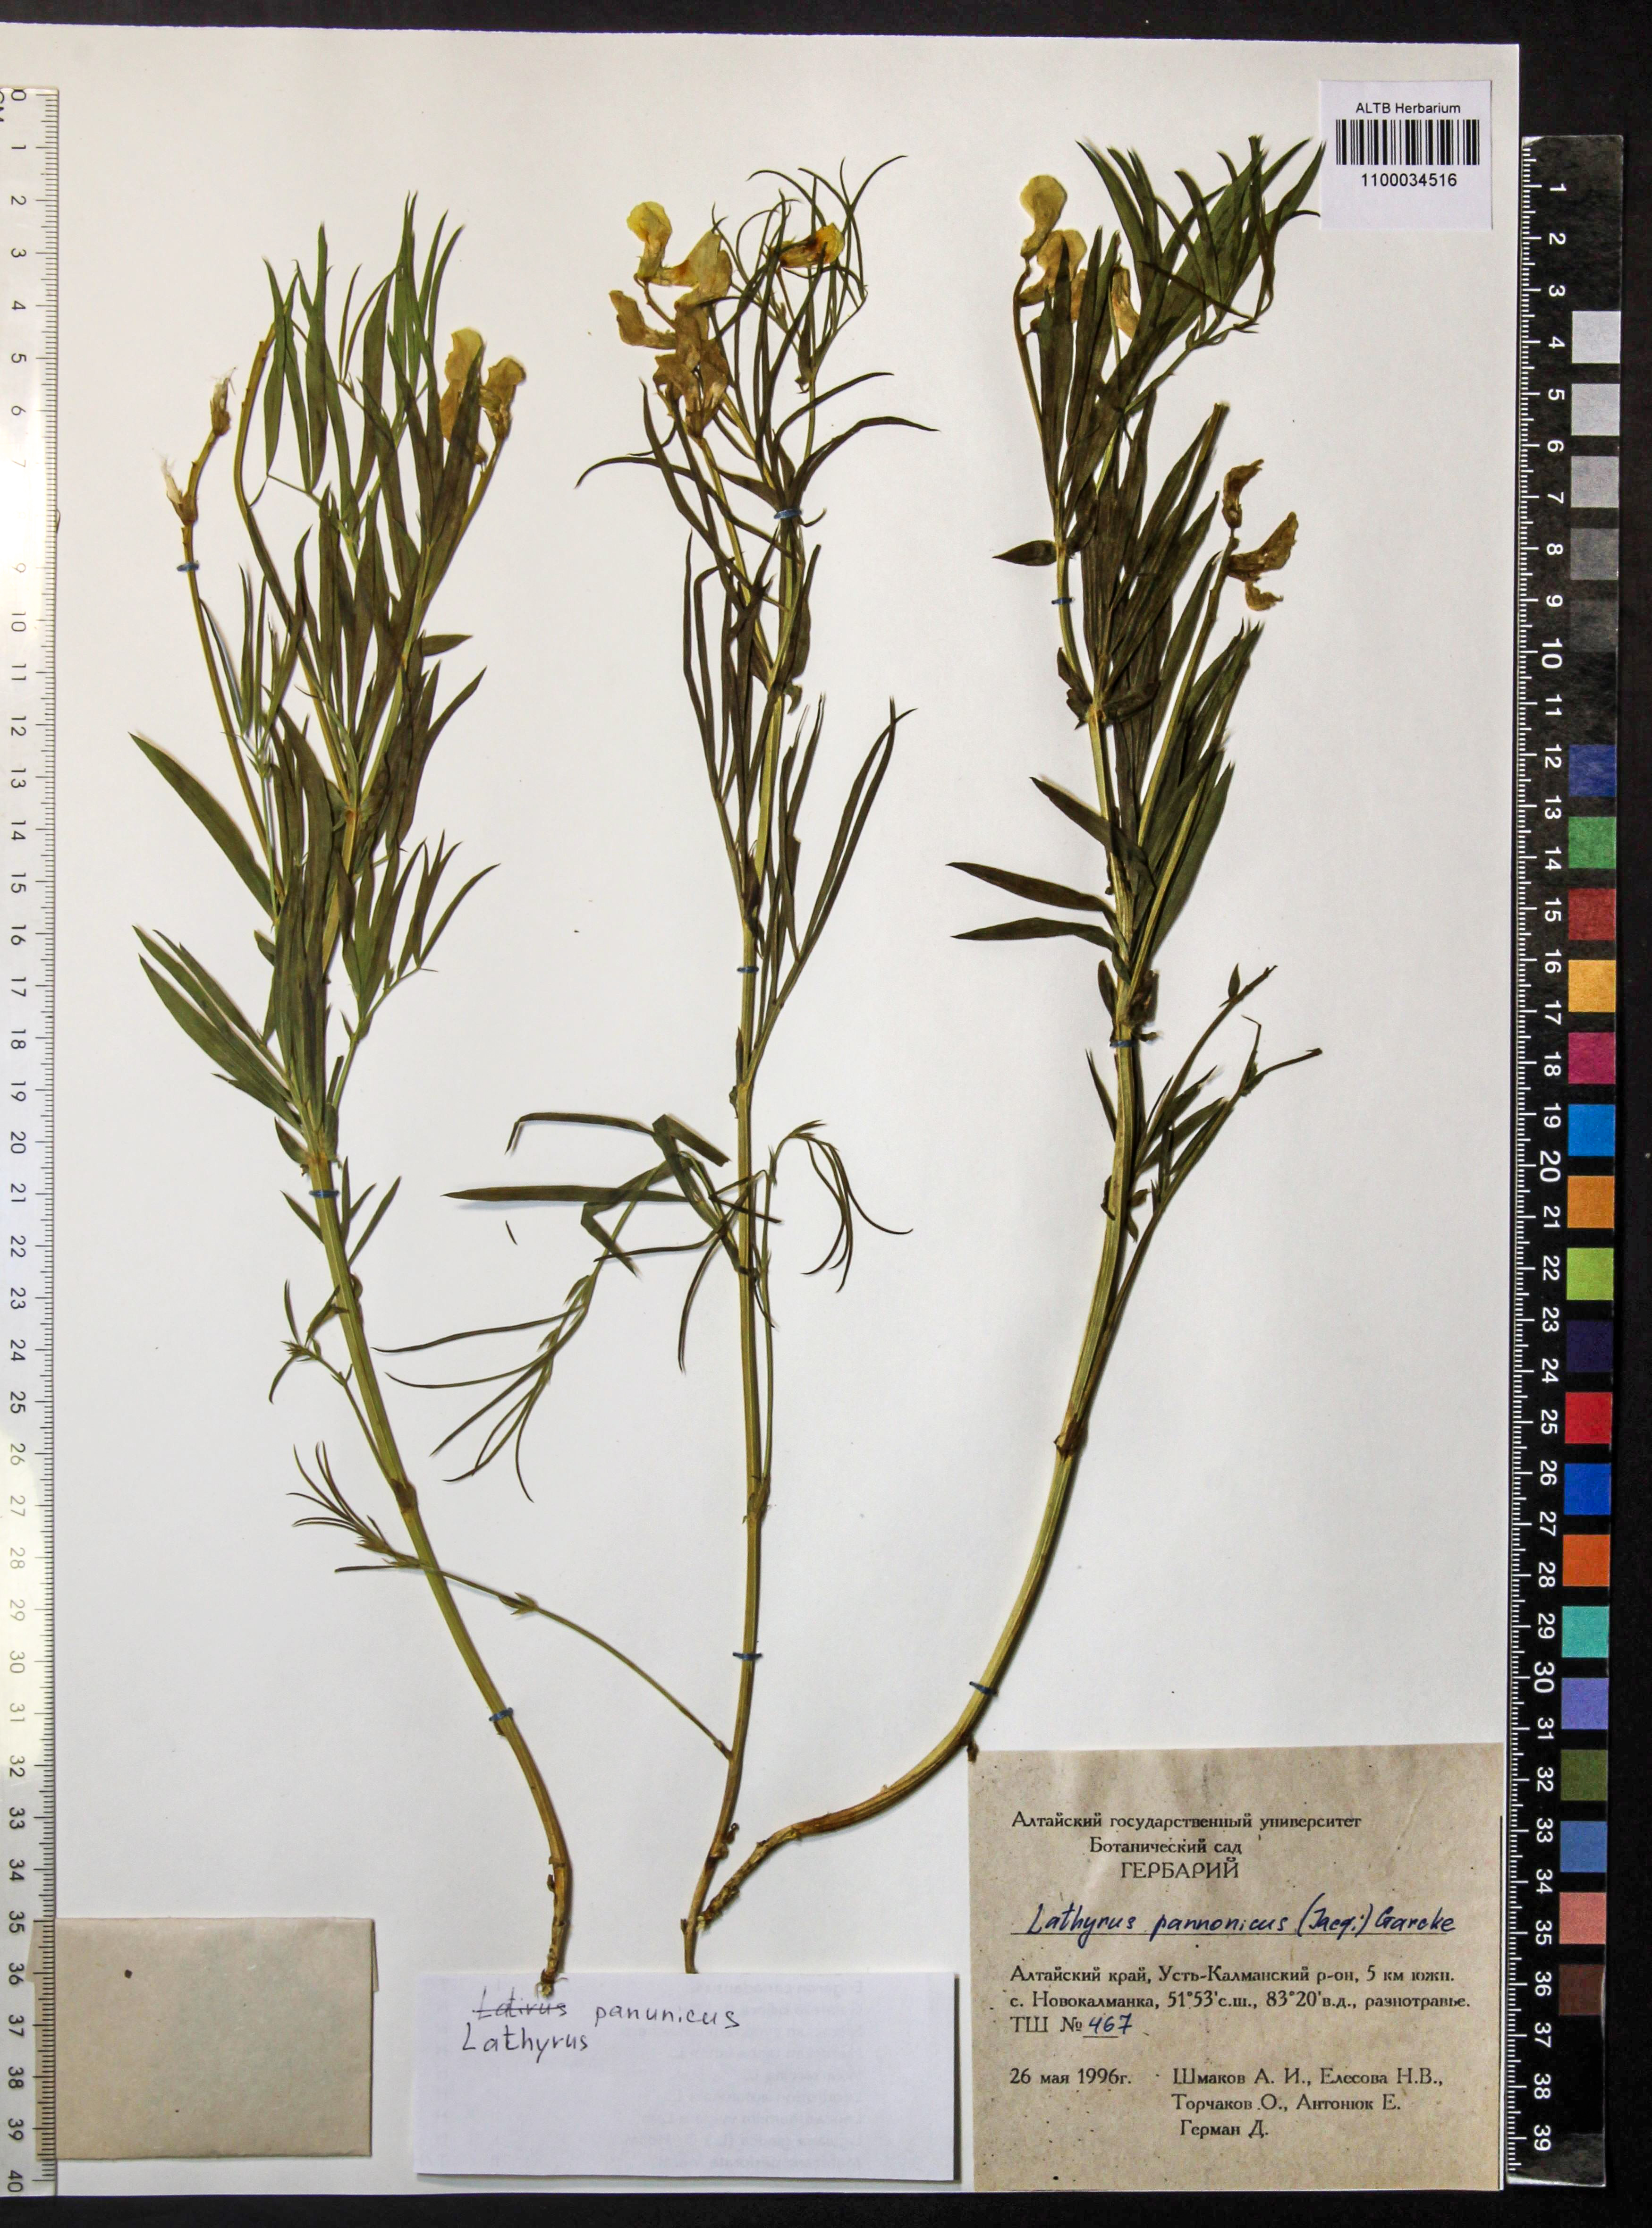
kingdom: Plantae
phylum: Tracheophyta
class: Magnoliopsida
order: Fabales
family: Fabaceae
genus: Lathyrus
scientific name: Lathyrus pannonicus
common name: Pea
